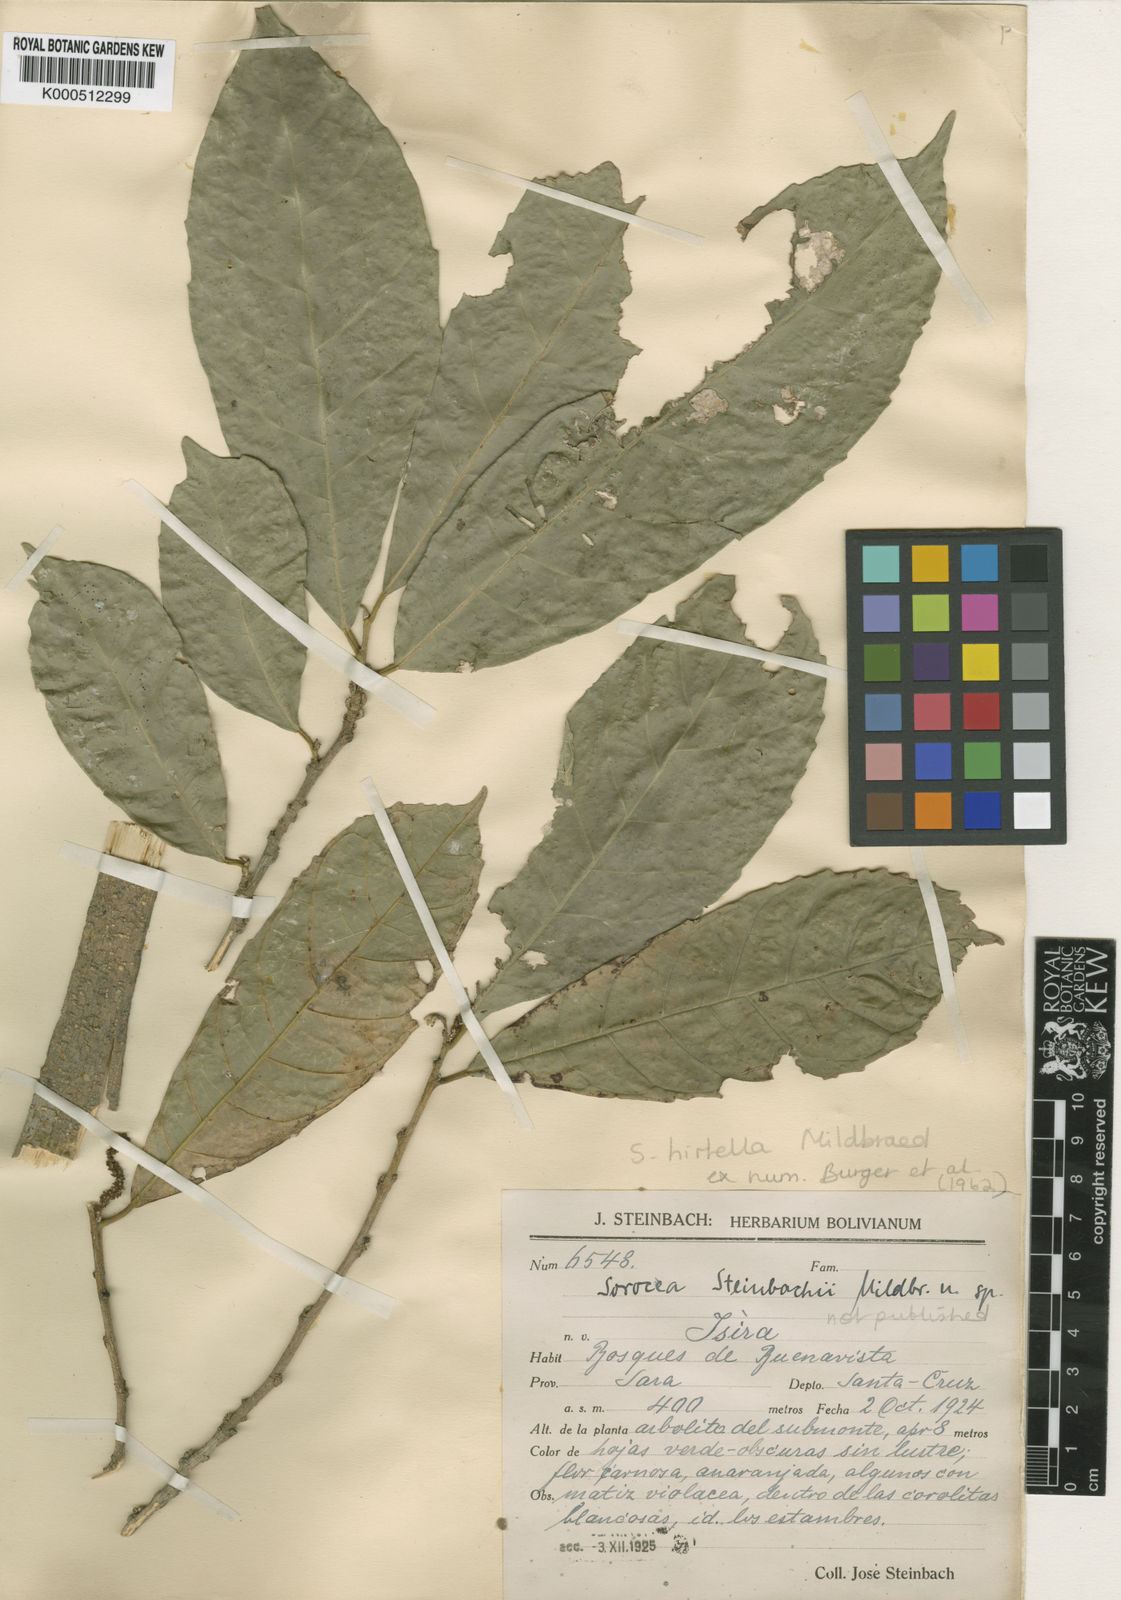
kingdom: Plantae
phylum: Tracheophyta
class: Magnoliopsida
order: Rosales
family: Moraceae
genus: Sorocea
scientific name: Sorocea pubivena
